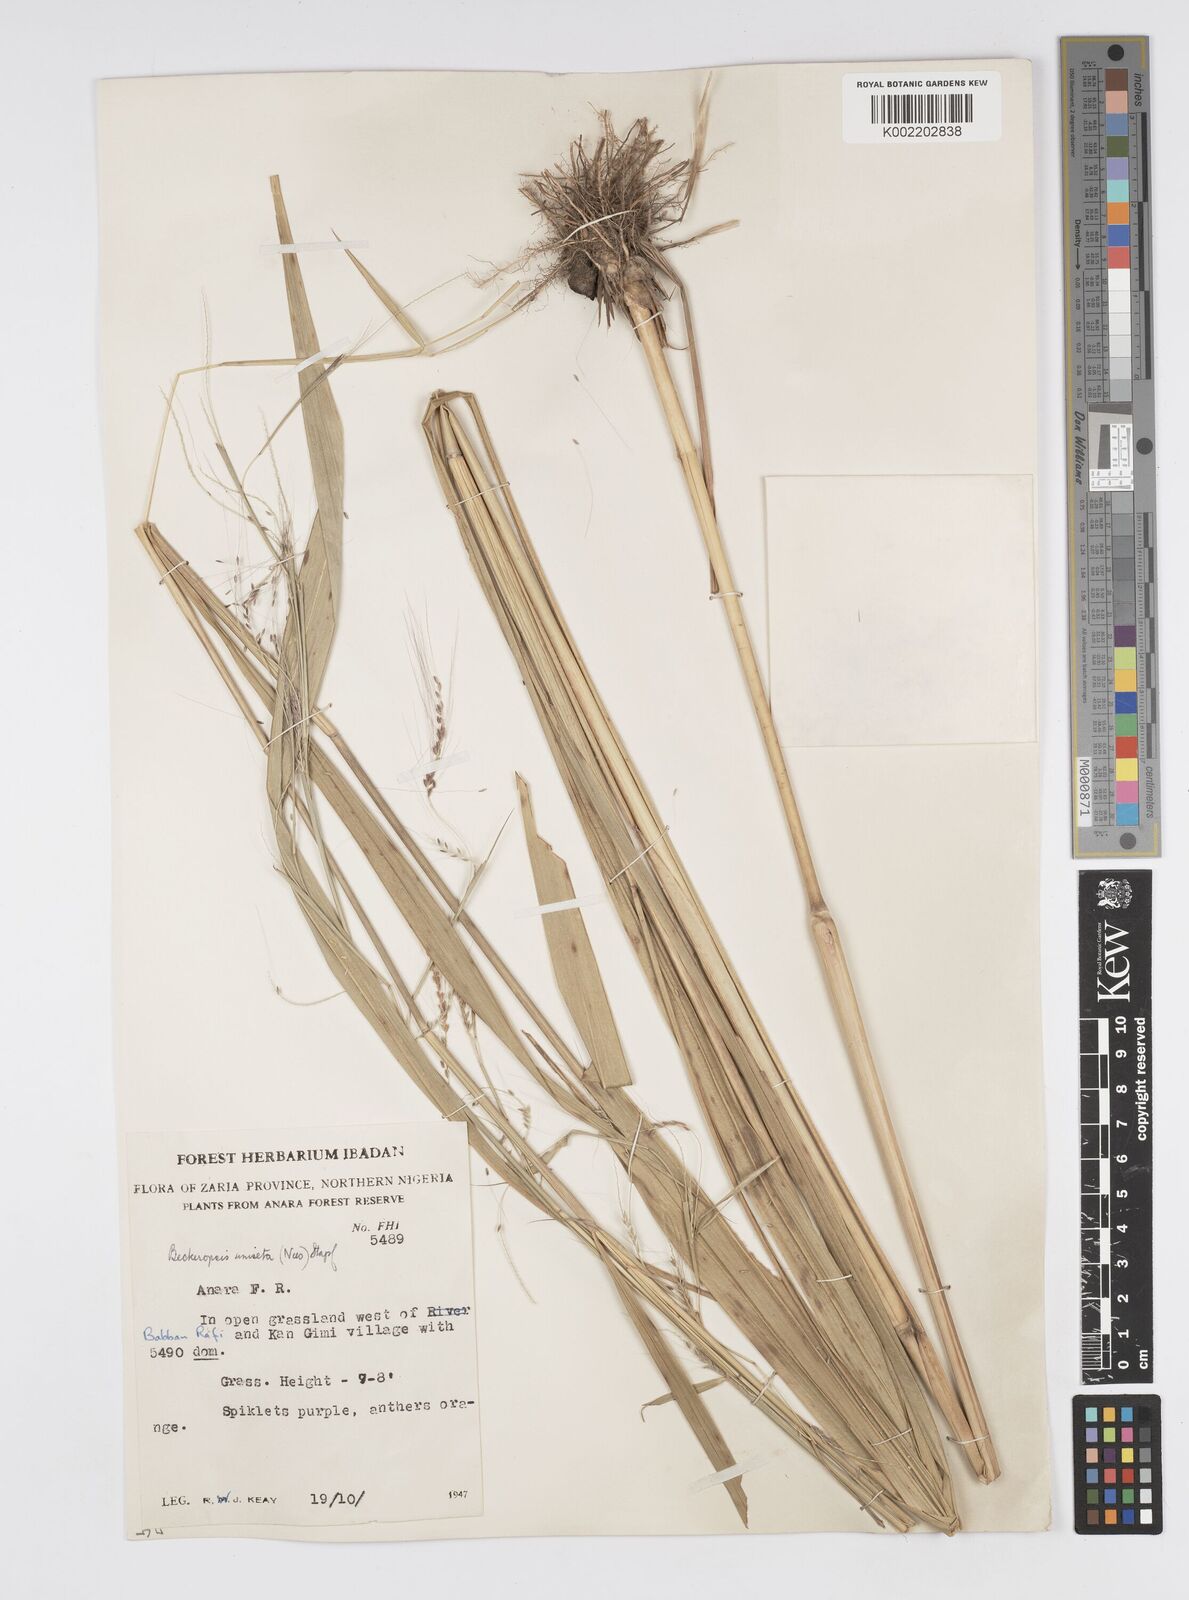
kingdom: Plantae
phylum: Tracheophyta
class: Liliopsida
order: Poales
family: Poaceae
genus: Cenchrus
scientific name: Cenchrus unisetus
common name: Natal grass
